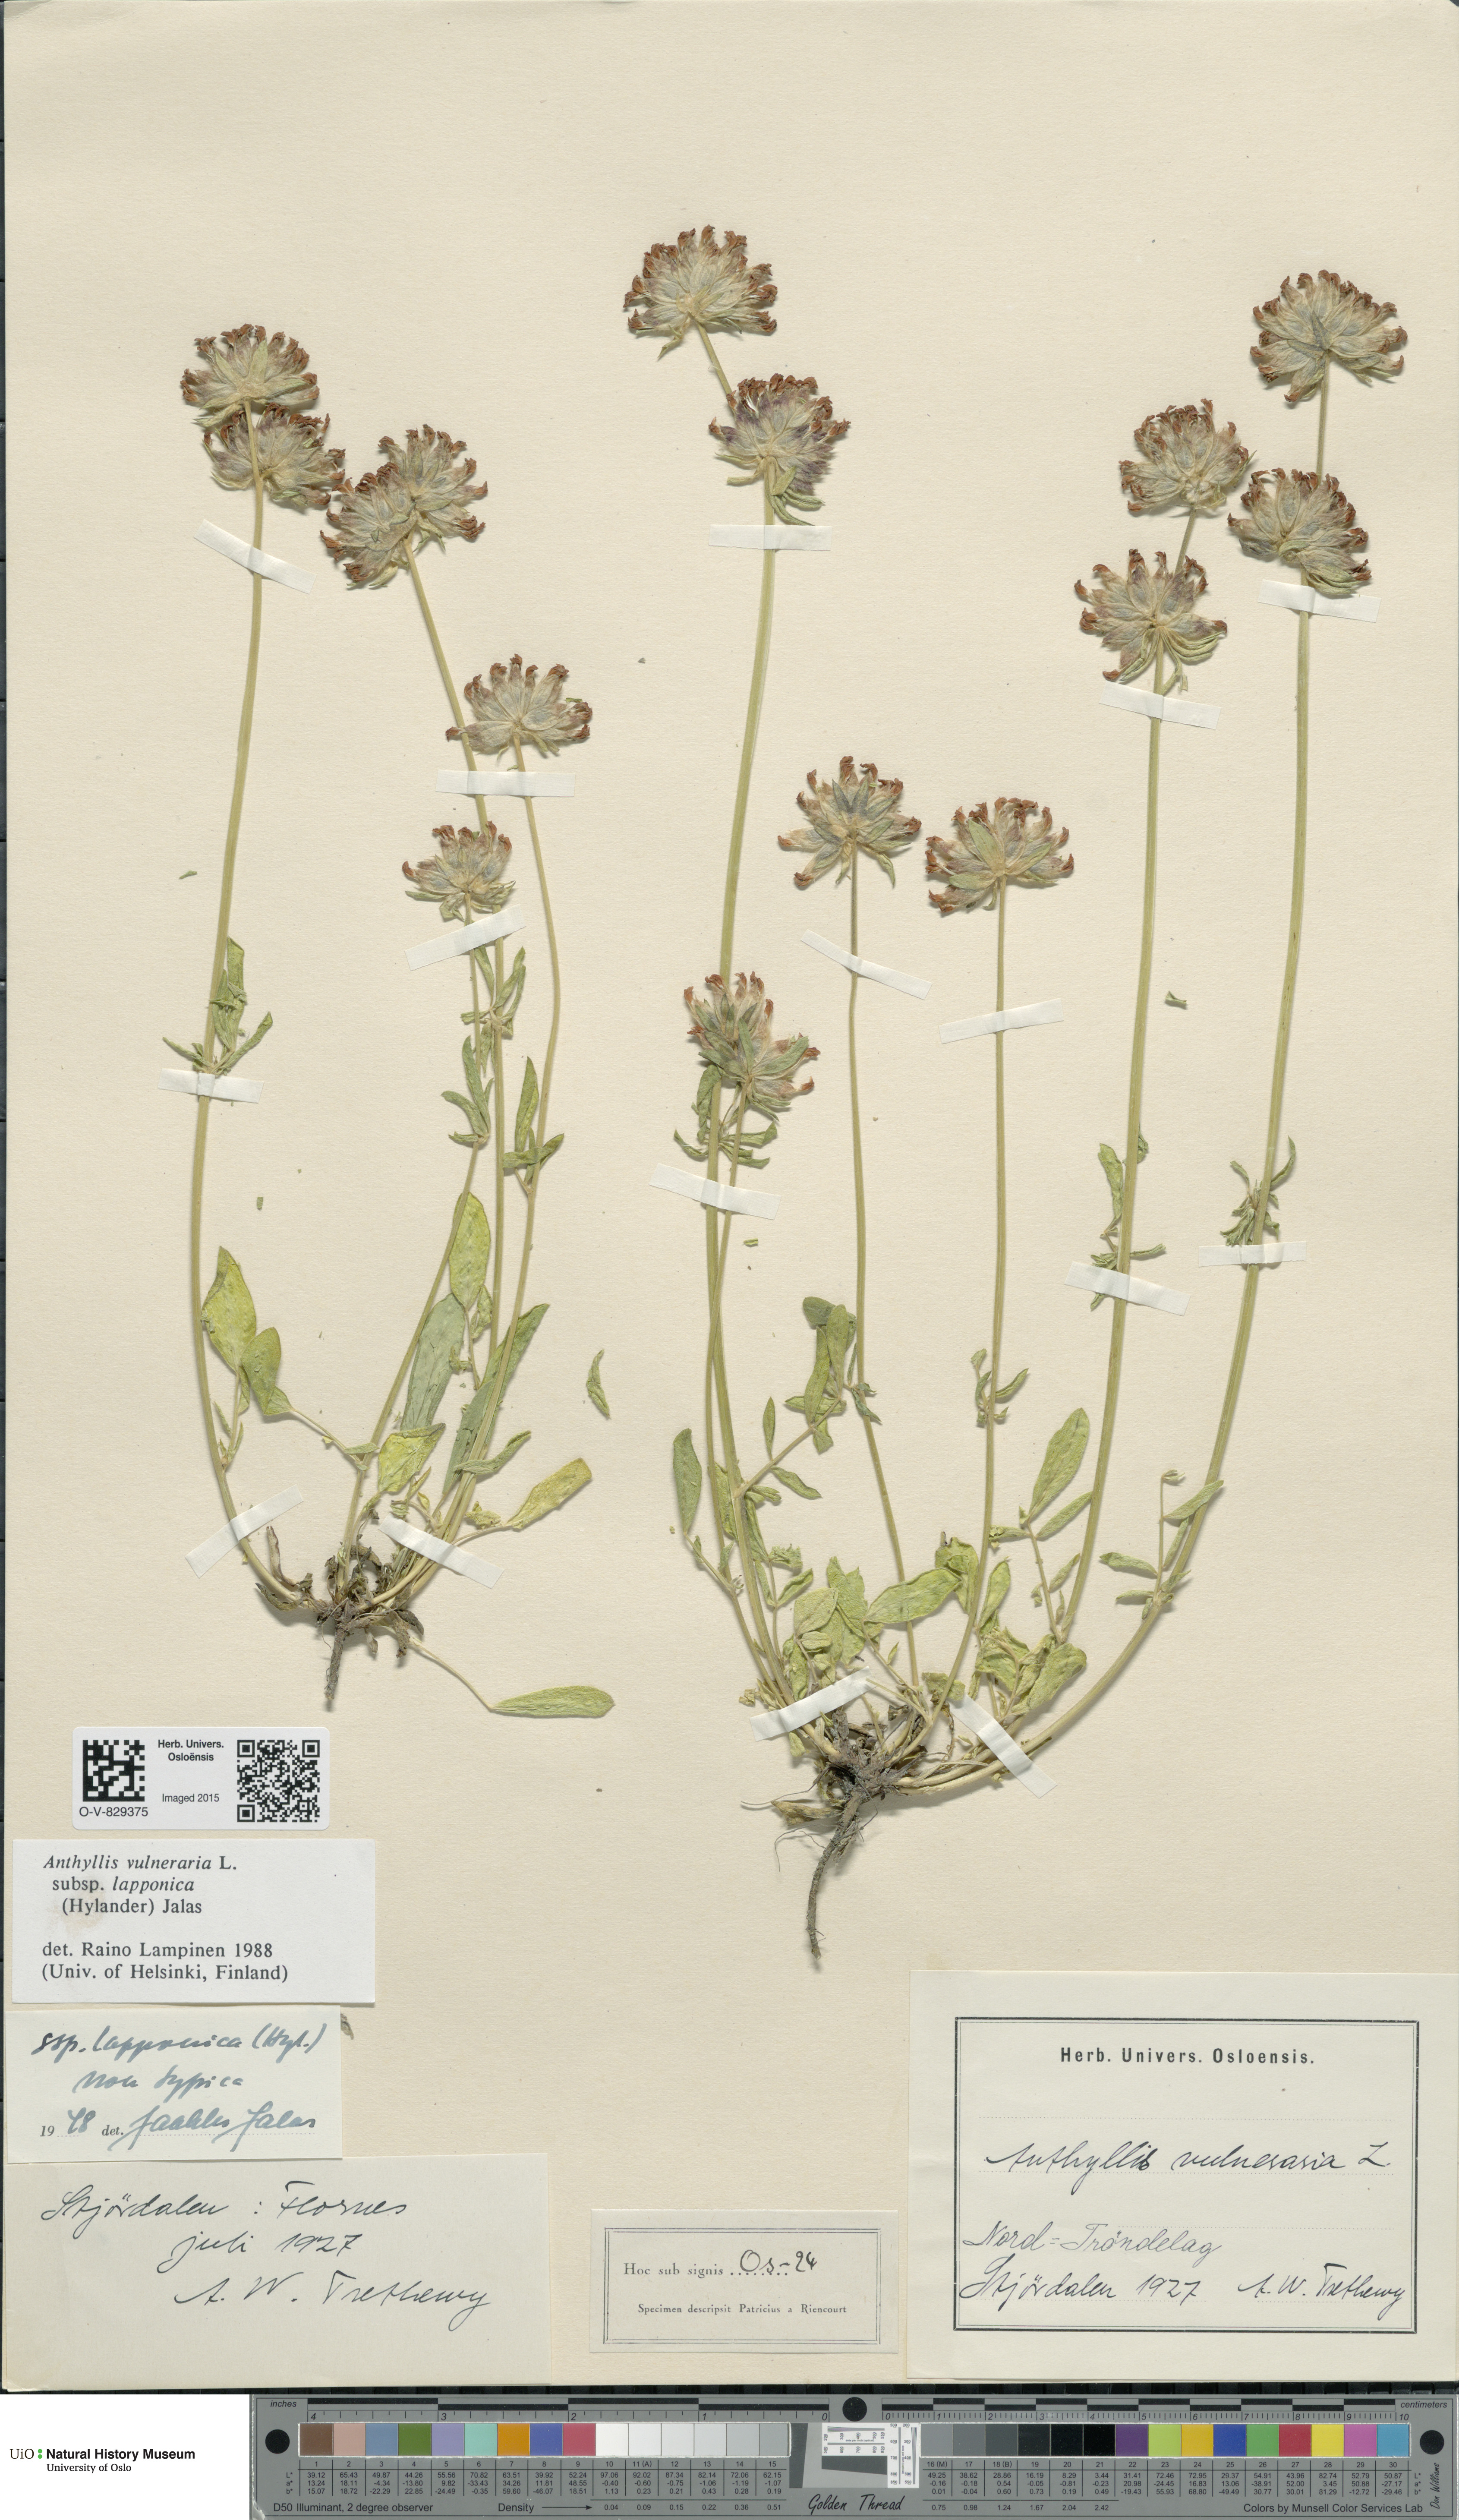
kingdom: Plantae
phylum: Tracheophyta
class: Magnoliopsida
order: Fabales
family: Fabaceae
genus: Anthyllis
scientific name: Anthyllis vulneraria
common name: Kidney vetch
